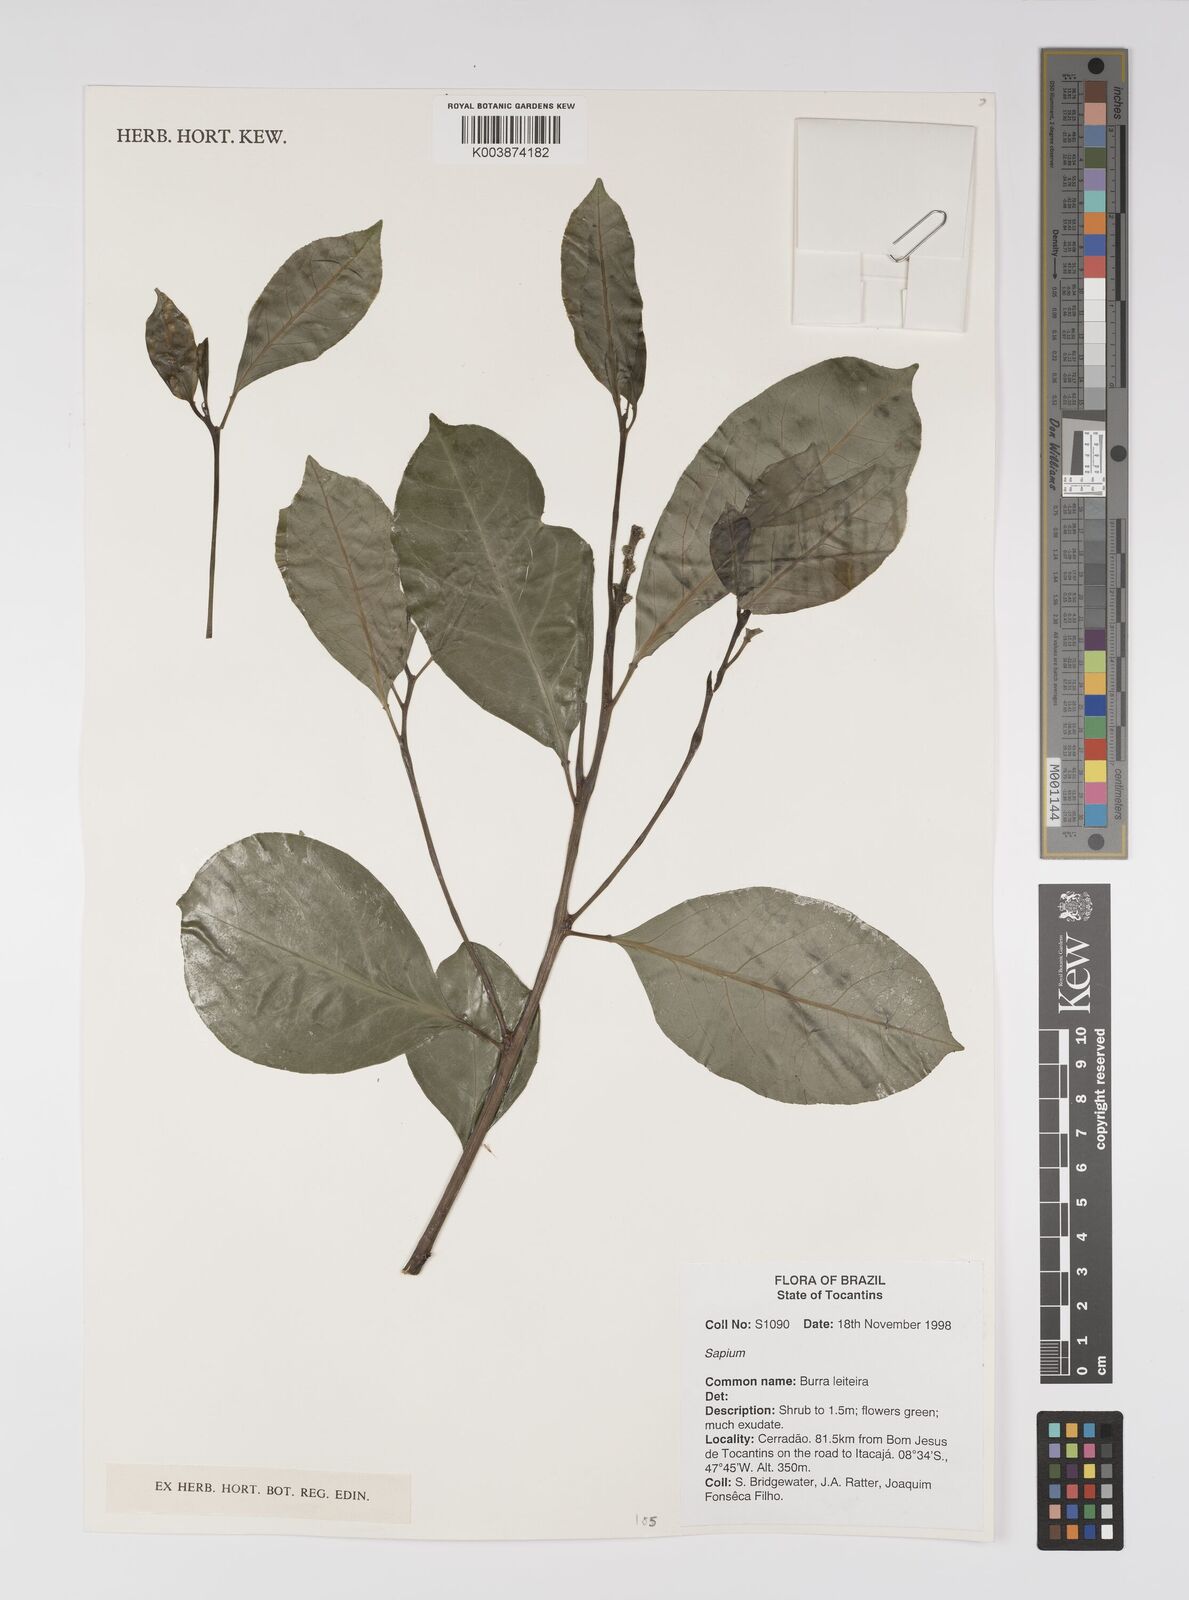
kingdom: Plantae
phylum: Tracheophyta
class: Magnoliopsida
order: Malpighiales
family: Euphorbiaceae
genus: Sapium
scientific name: Sapium
